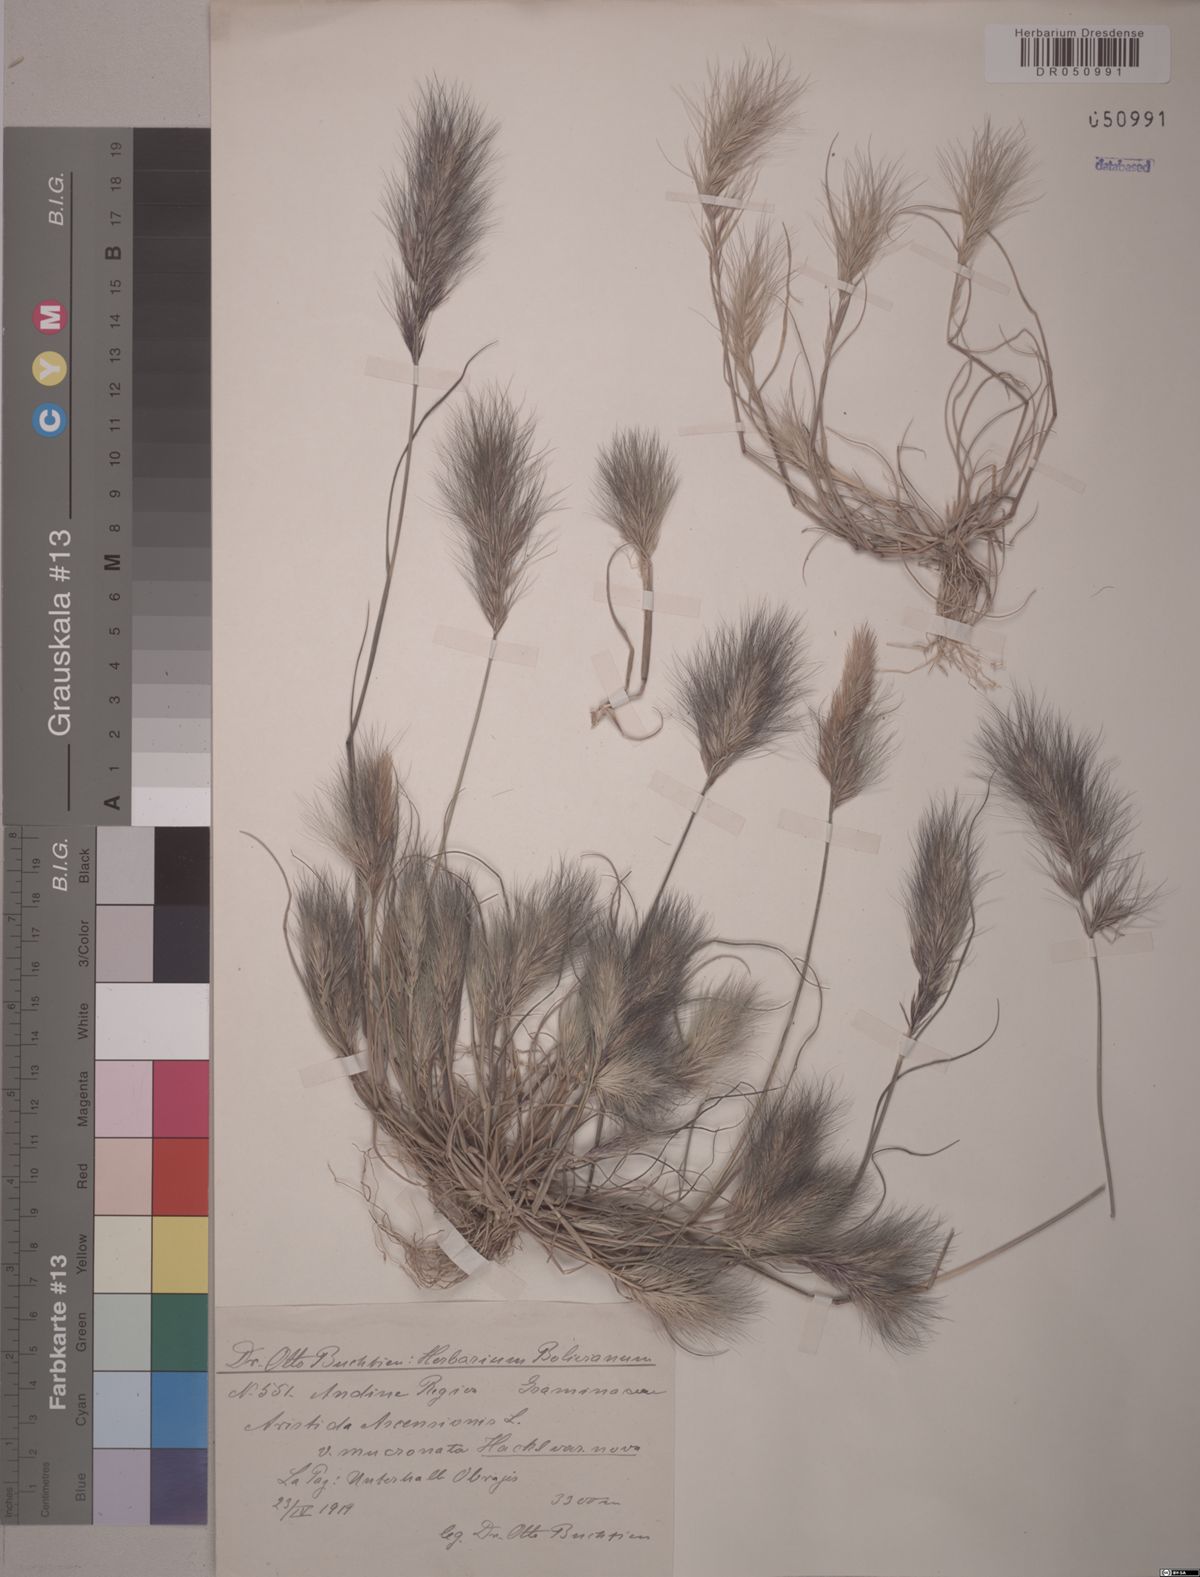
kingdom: Plantae
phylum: Tracheophyta
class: Liliopsida
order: Poales
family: Poaceae
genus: Aristida
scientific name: Aristida adscensionis
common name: Sixweeks threeawn
